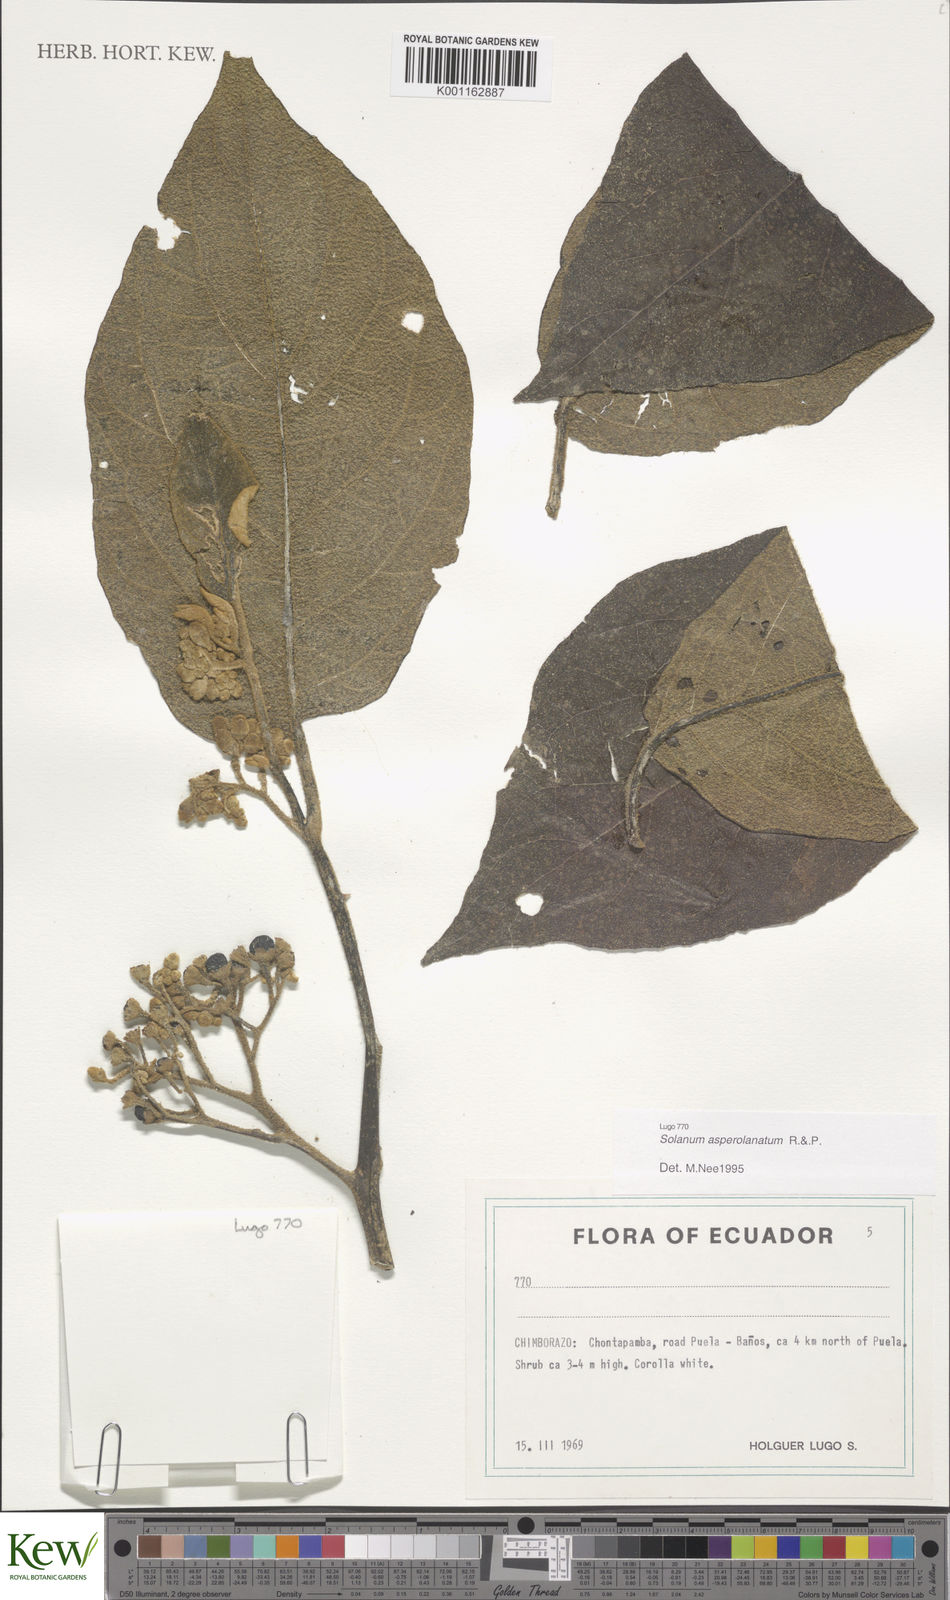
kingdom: Plantae
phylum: Tracheophyta
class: Magnoliopsida
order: Solanales
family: Solanaceae
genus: Solanum
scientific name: Solanum asperolanatum
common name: Devil's-fig
